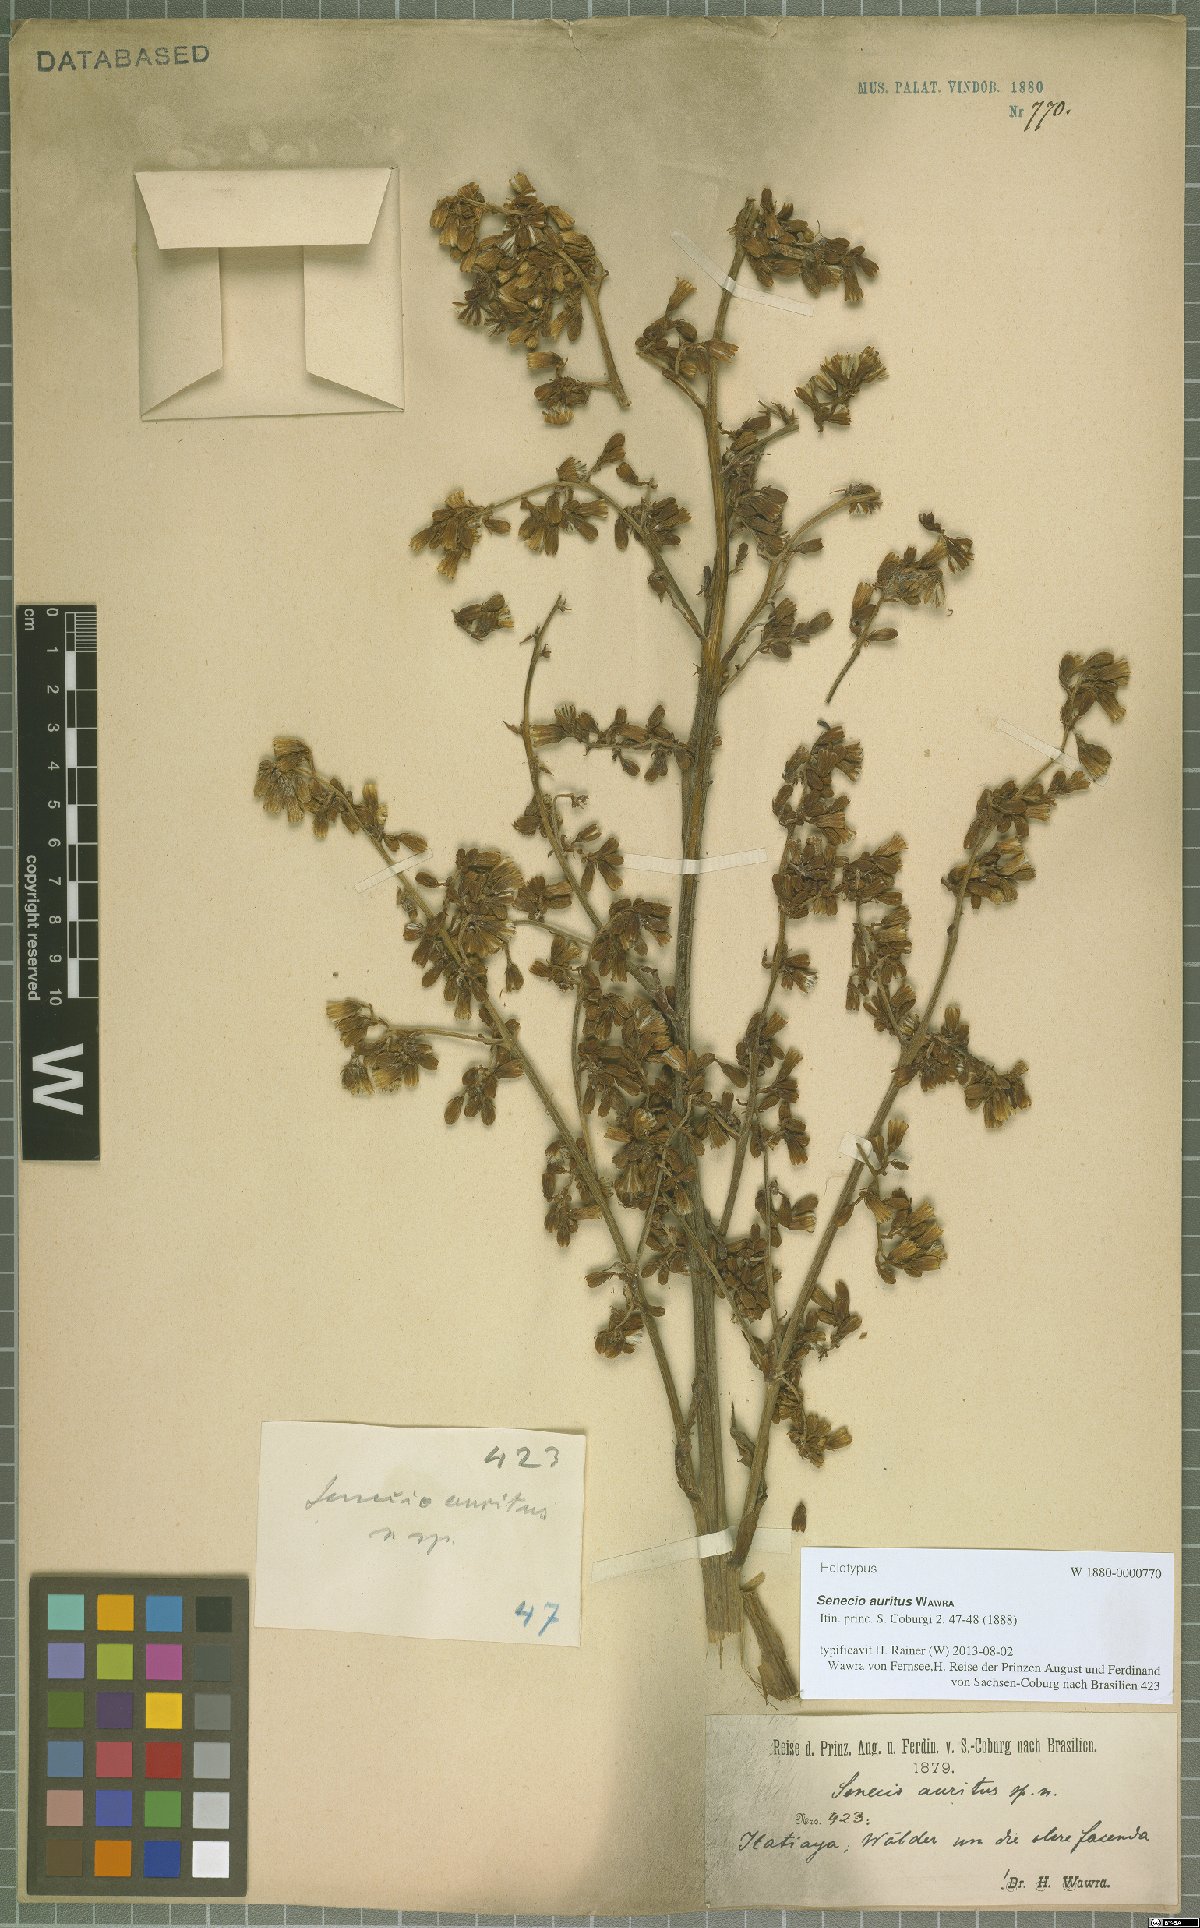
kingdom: Plantae
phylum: Tracheophyta
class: Magnoliopsida
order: Asterales
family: Asteraceae
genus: Senecio
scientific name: Senecio auritifolius
